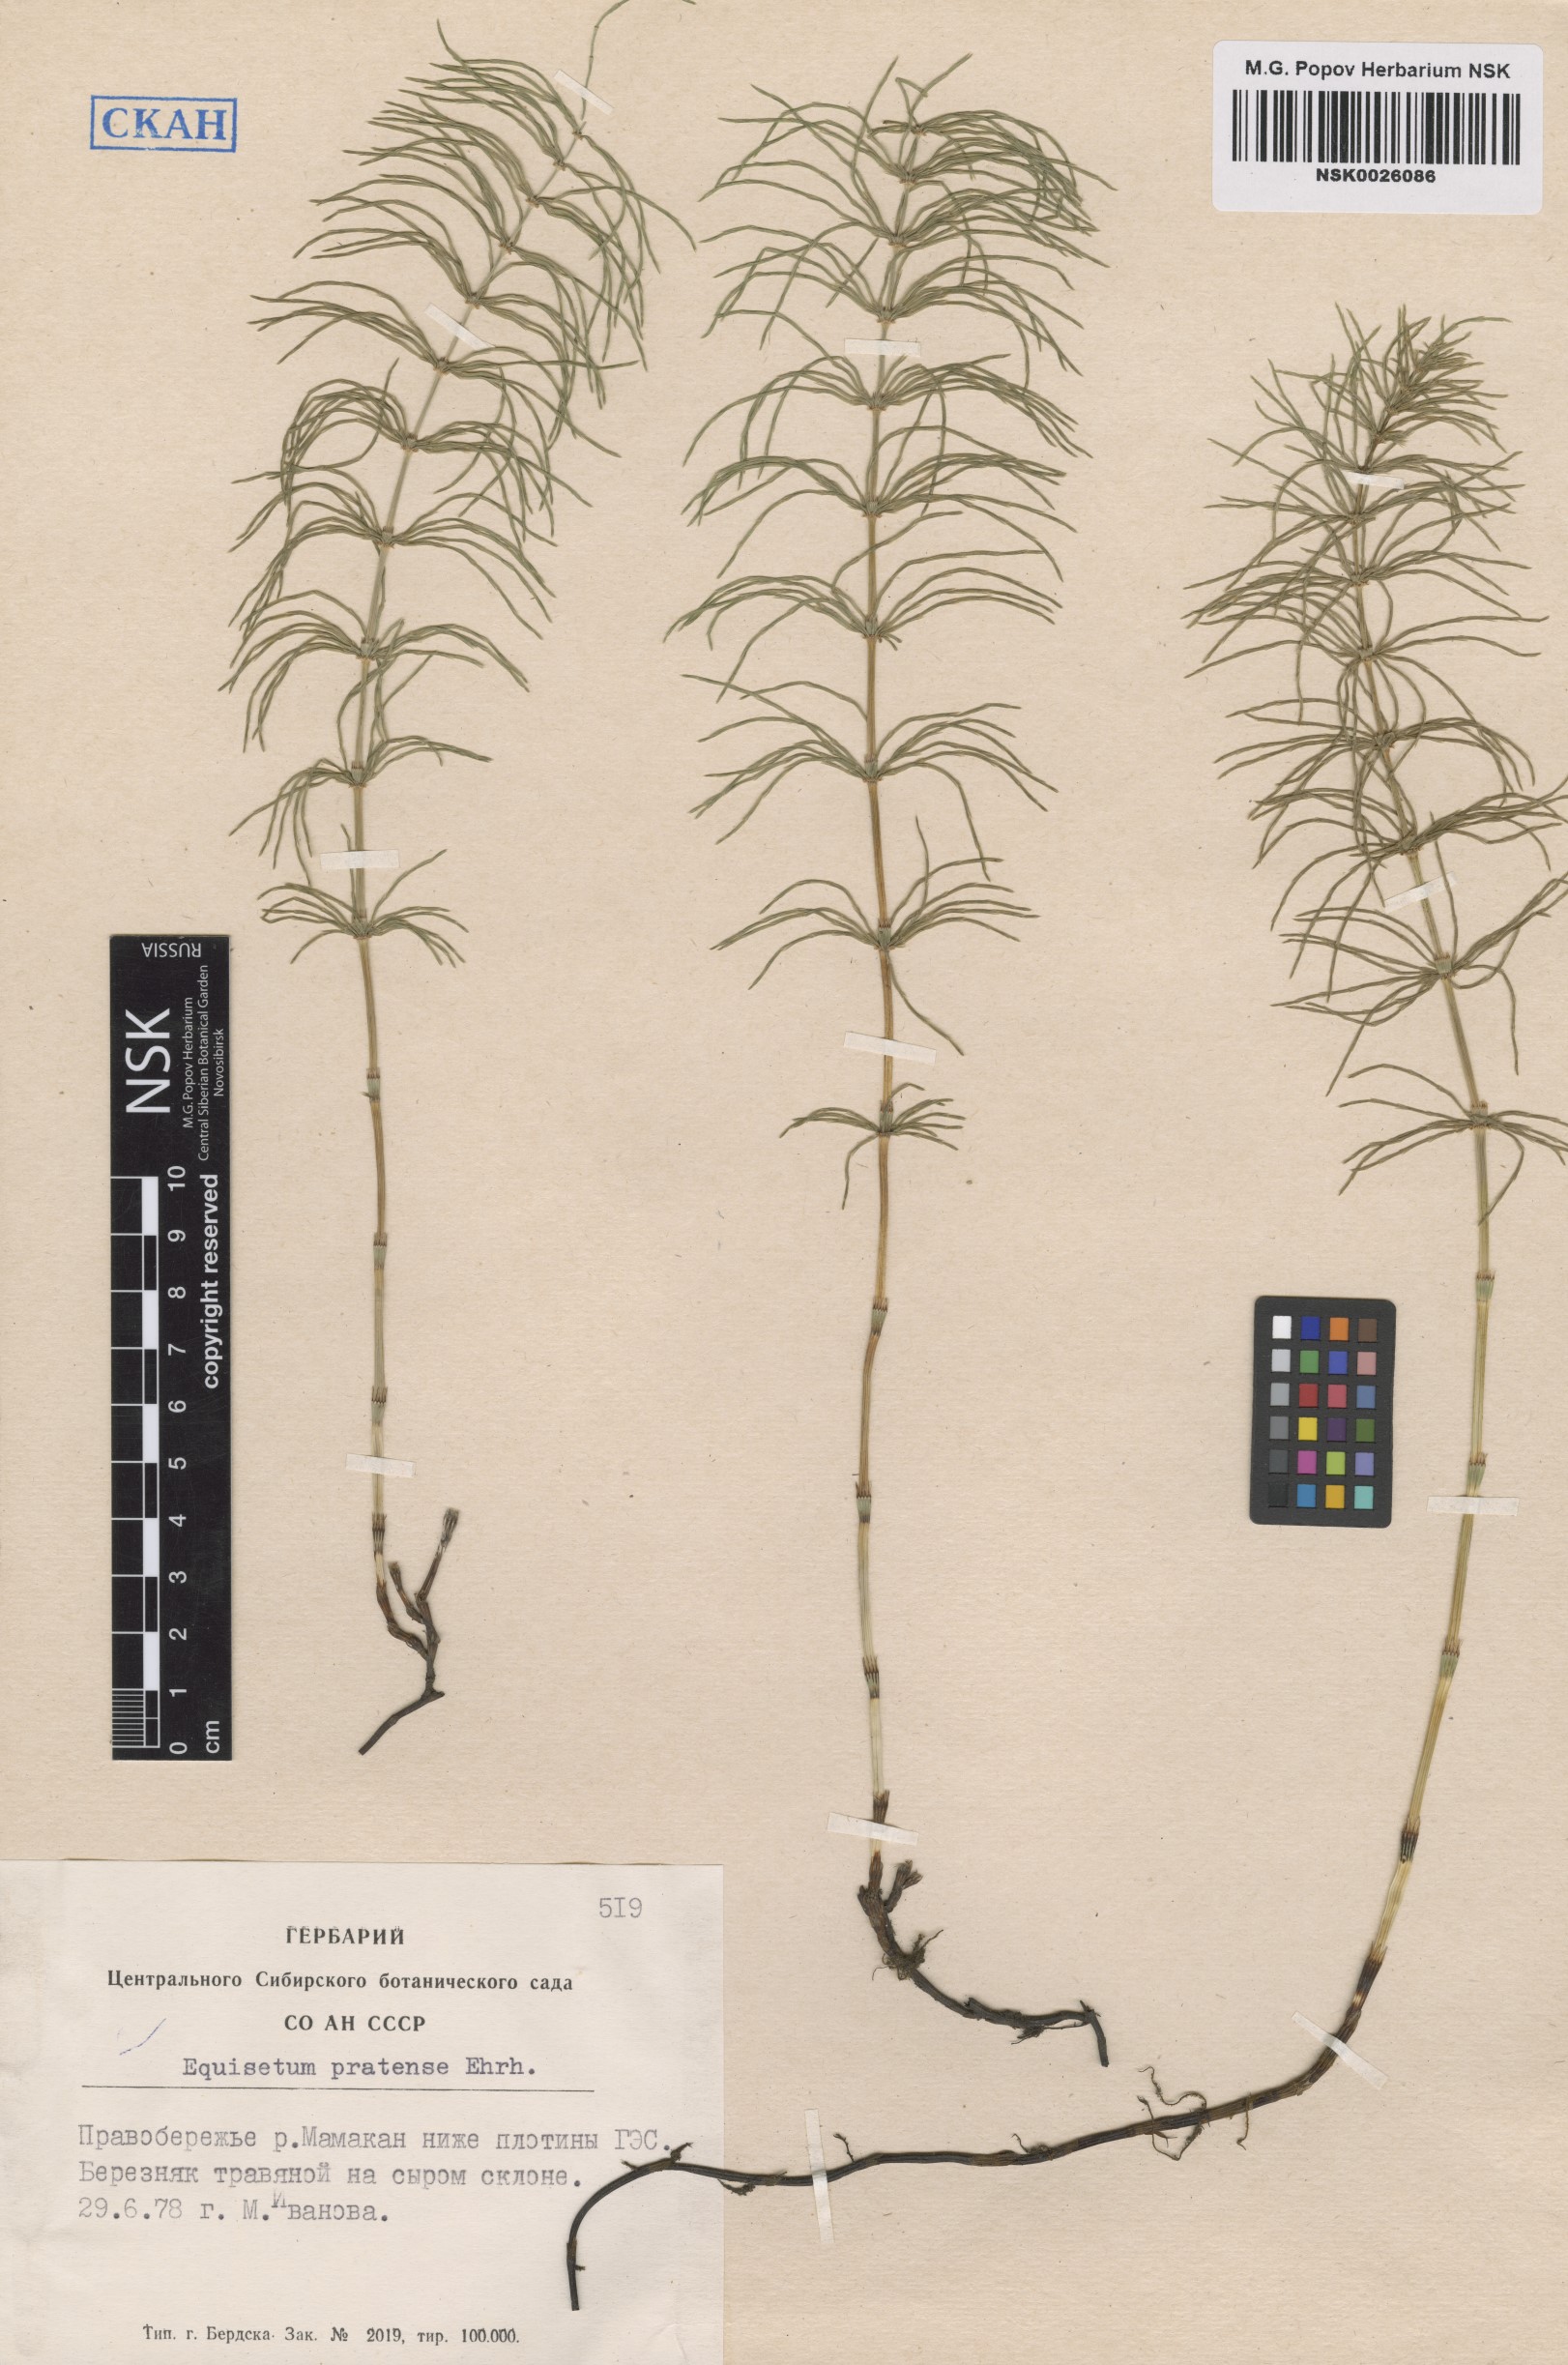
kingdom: Plantae
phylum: Tracheophyta
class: Polypodiopsida
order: Equisetales
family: Equisetaceae
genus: Equisetum
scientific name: Equisetum pratense
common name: Meadow horsetail
